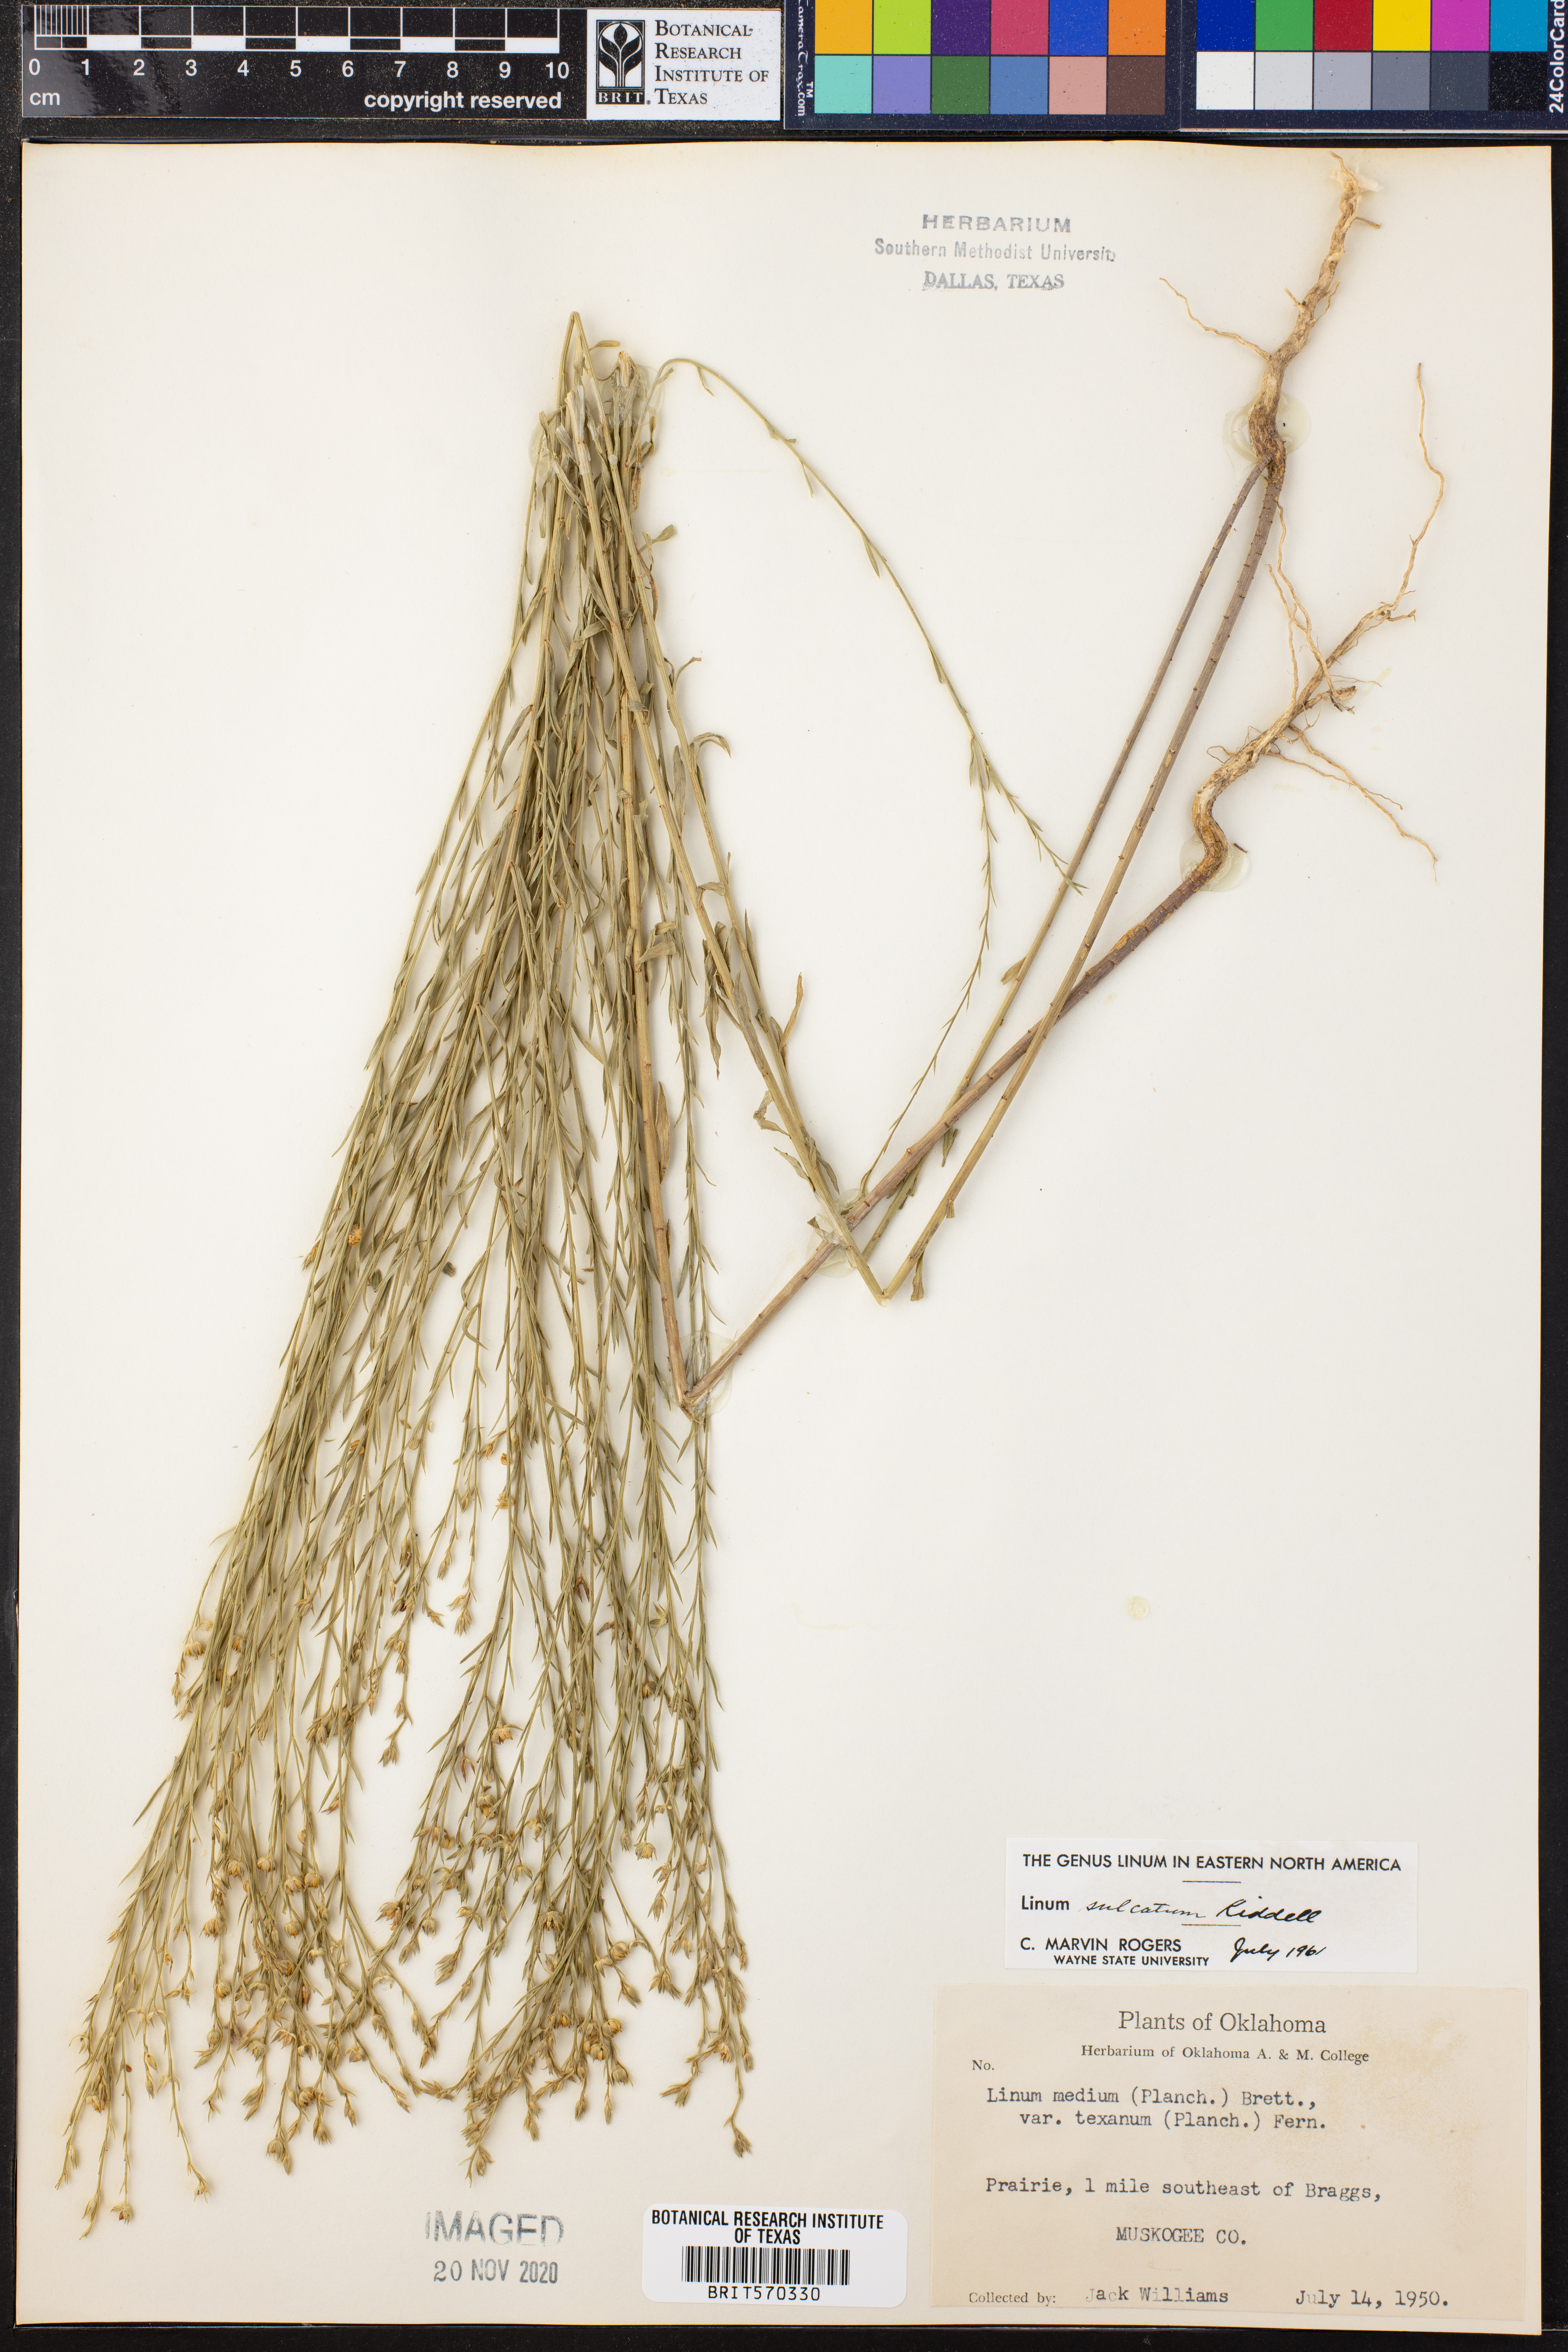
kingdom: Plantae
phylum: Tracheophyta
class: Magnoliopsida
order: Malpighiales
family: Linaceae
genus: Linum
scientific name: Linum sulcatum
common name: Grooved flax
